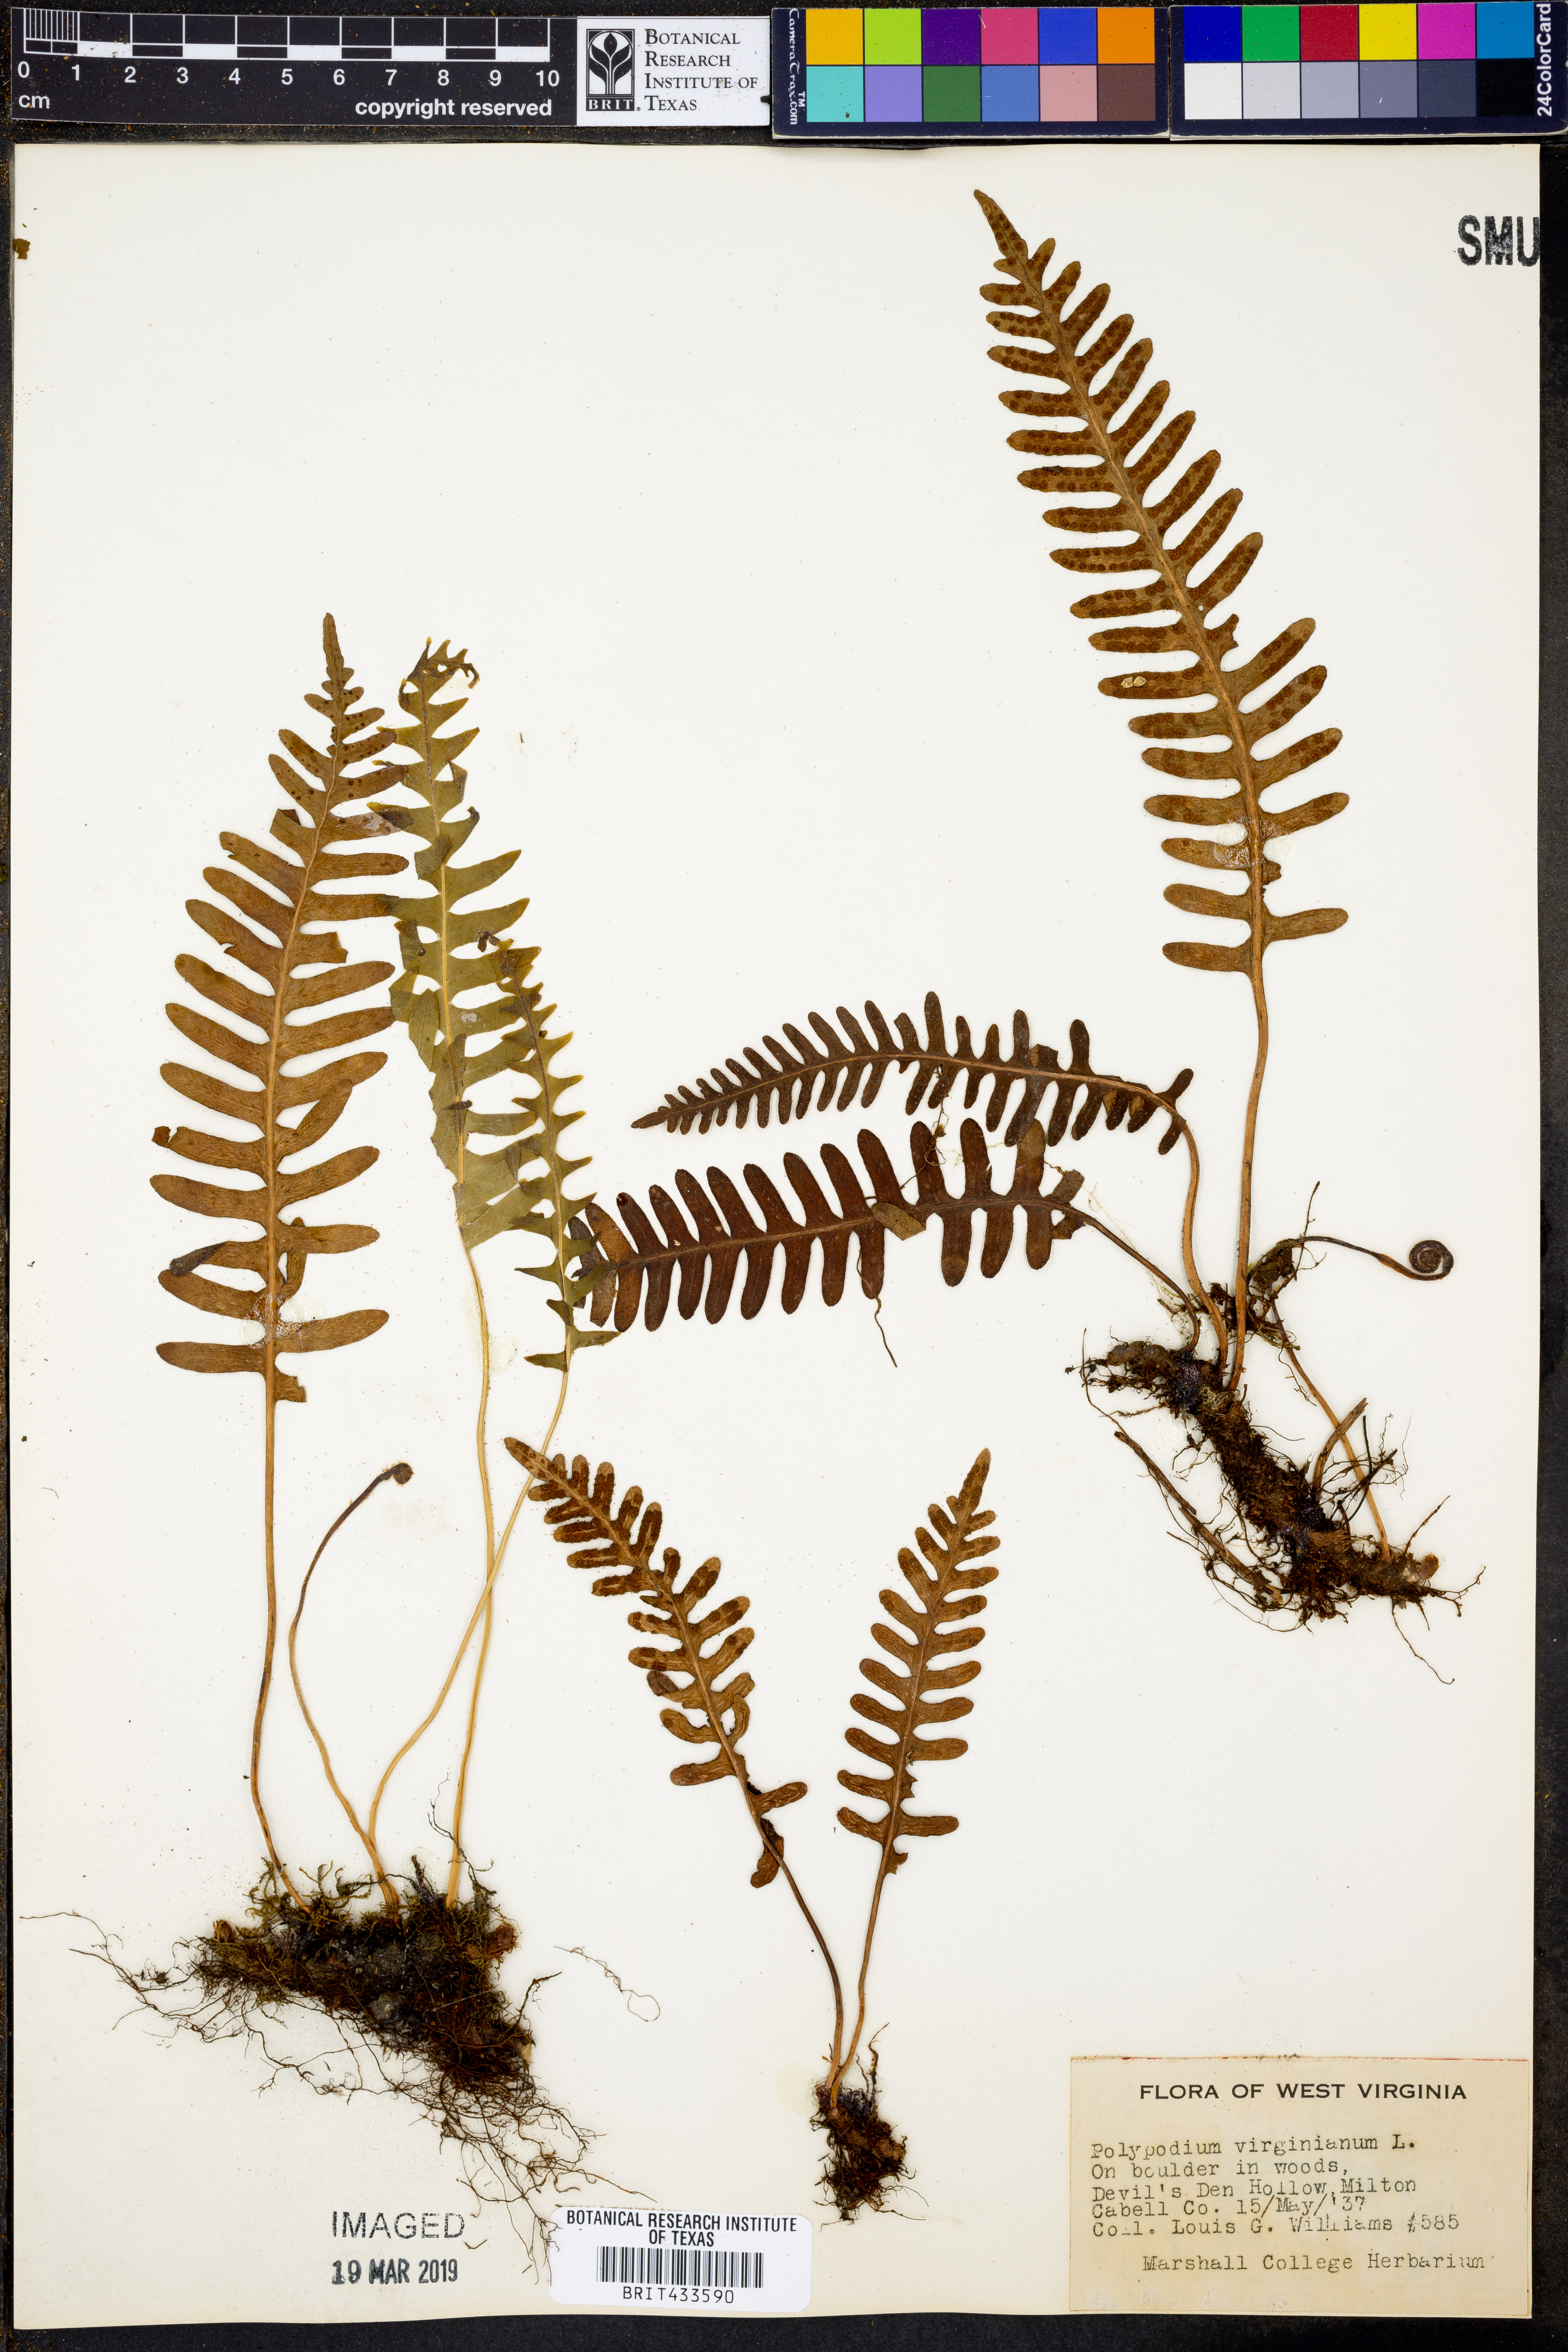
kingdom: Plantae
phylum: Tracheophyta
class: Polypodiopsida
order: Polypodiales
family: Polypodiaceae
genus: Polypodium
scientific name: Polypodium virginianum
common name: American wall fern
